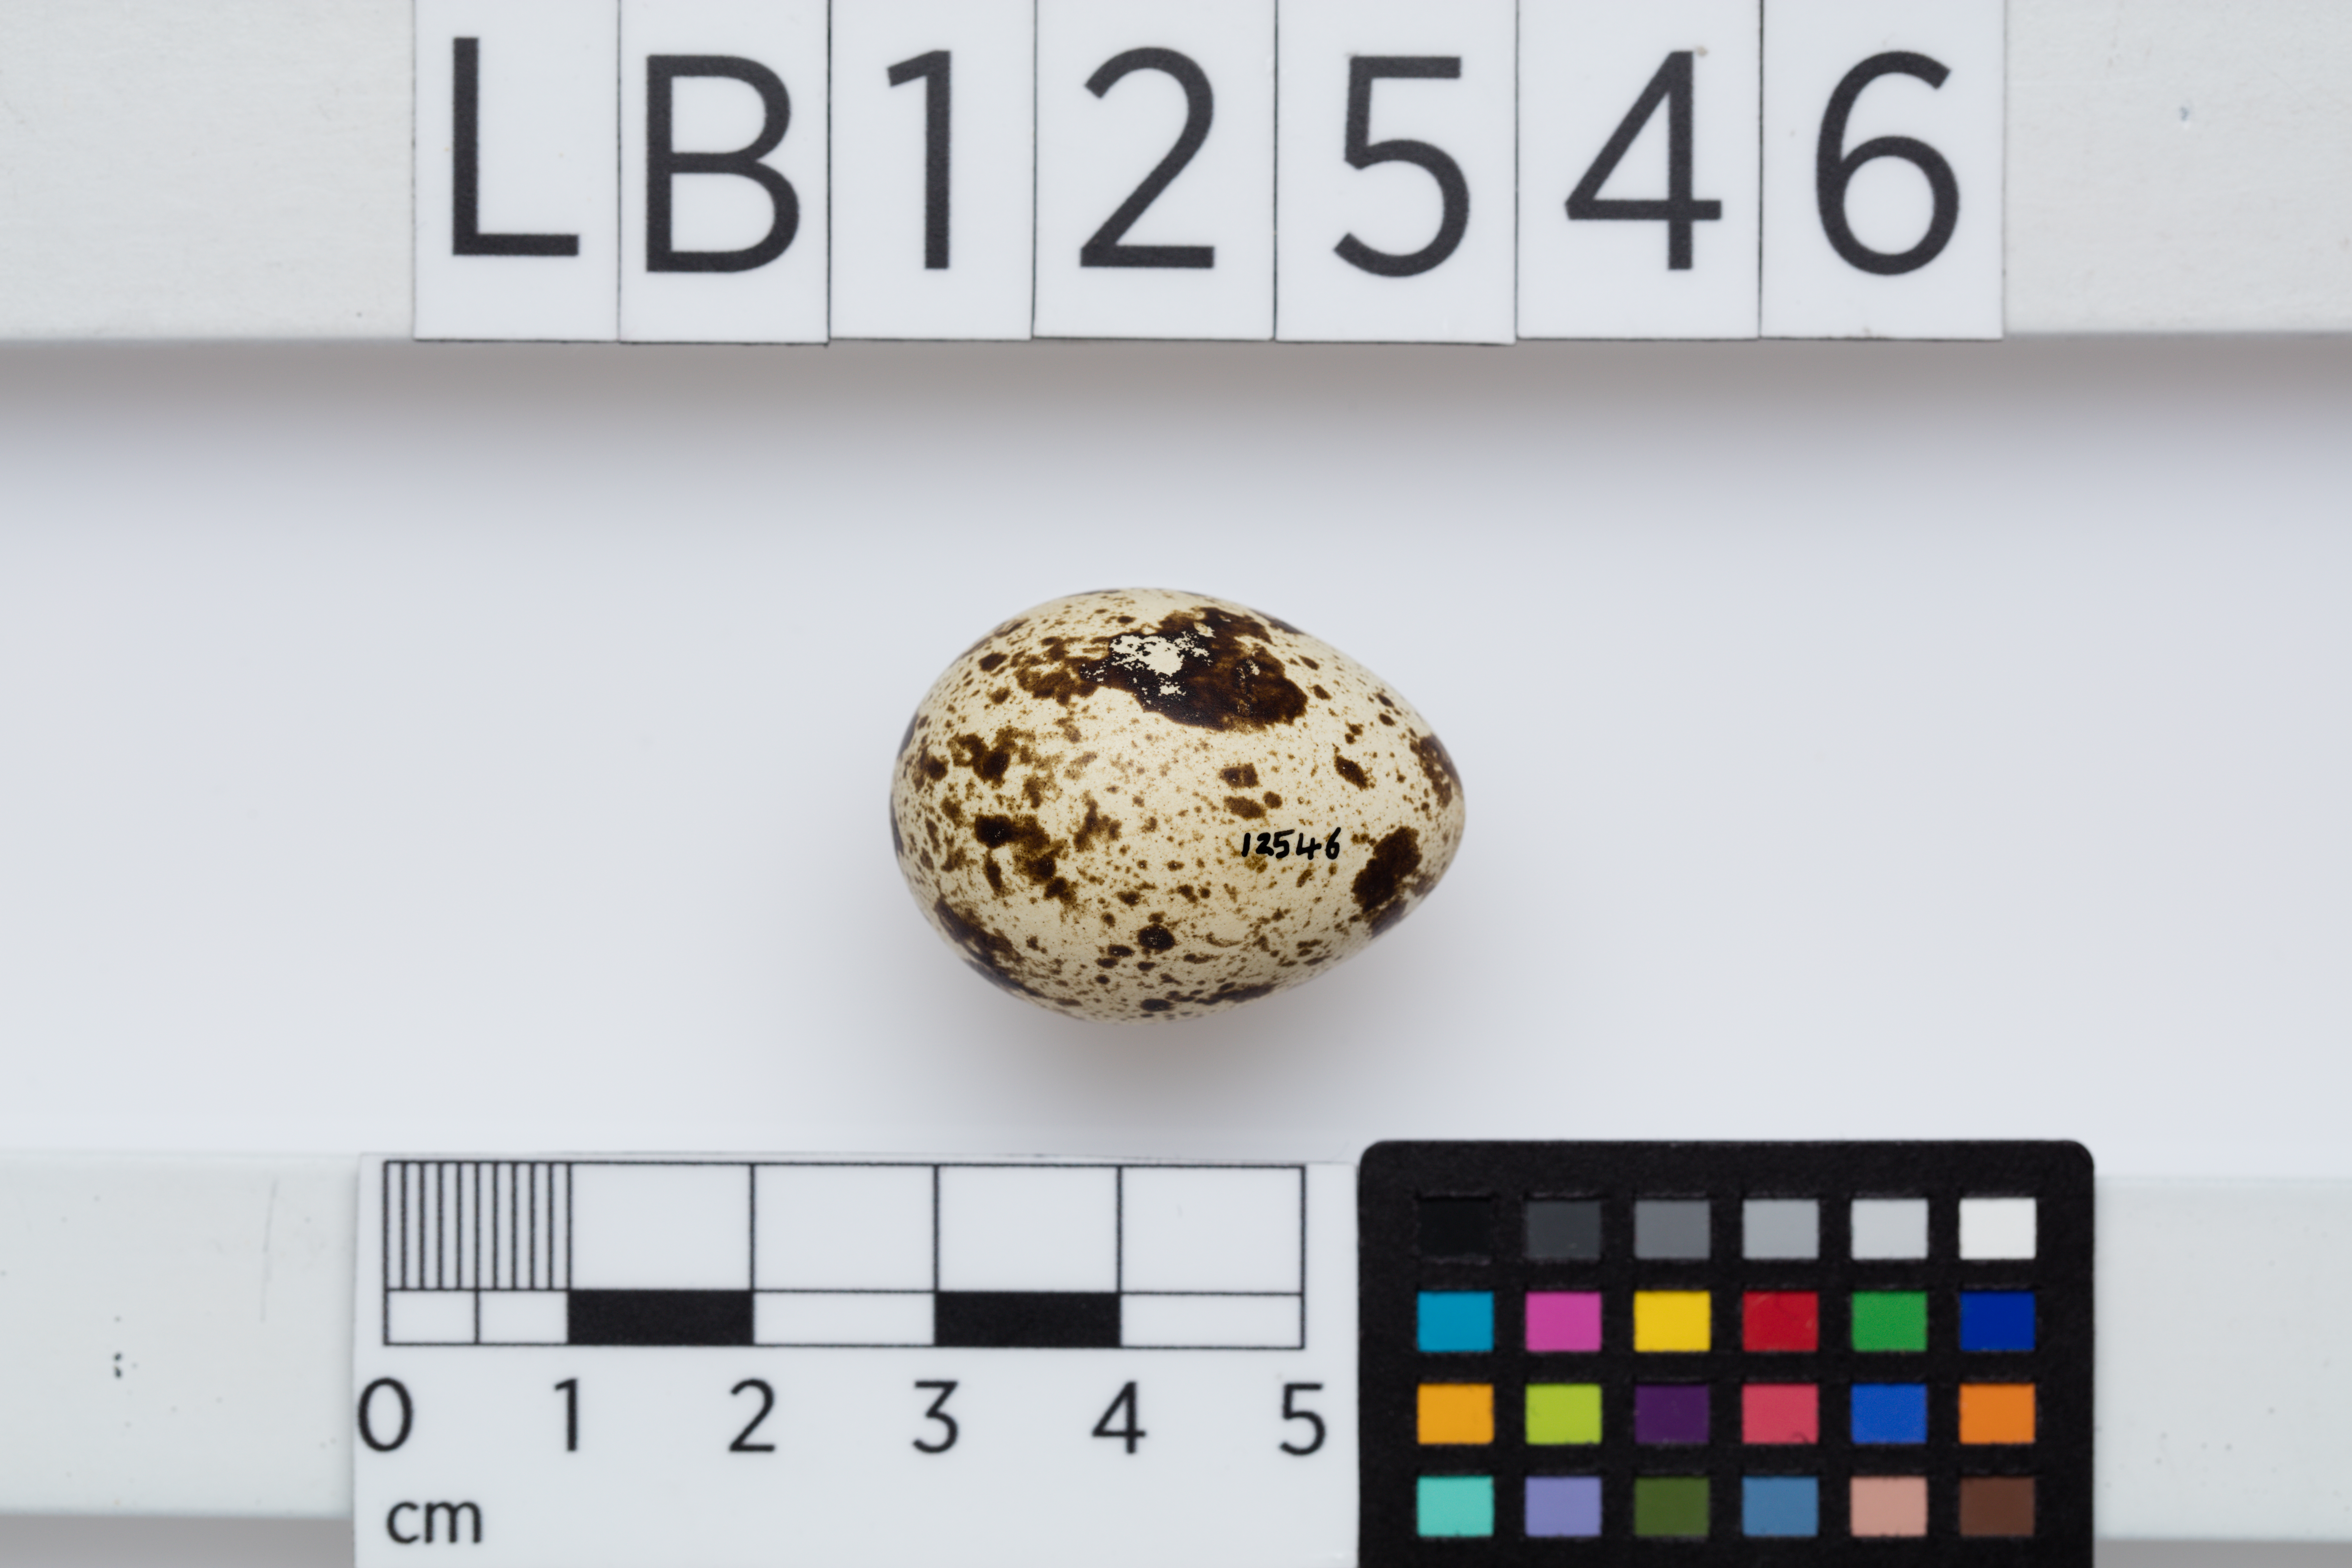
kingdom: Animalia
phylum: Chordata
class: Aves
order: Galliformes
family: Phasianidae
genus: Coturnix
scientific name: Coturnix pectoralis
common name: Stubble quail
